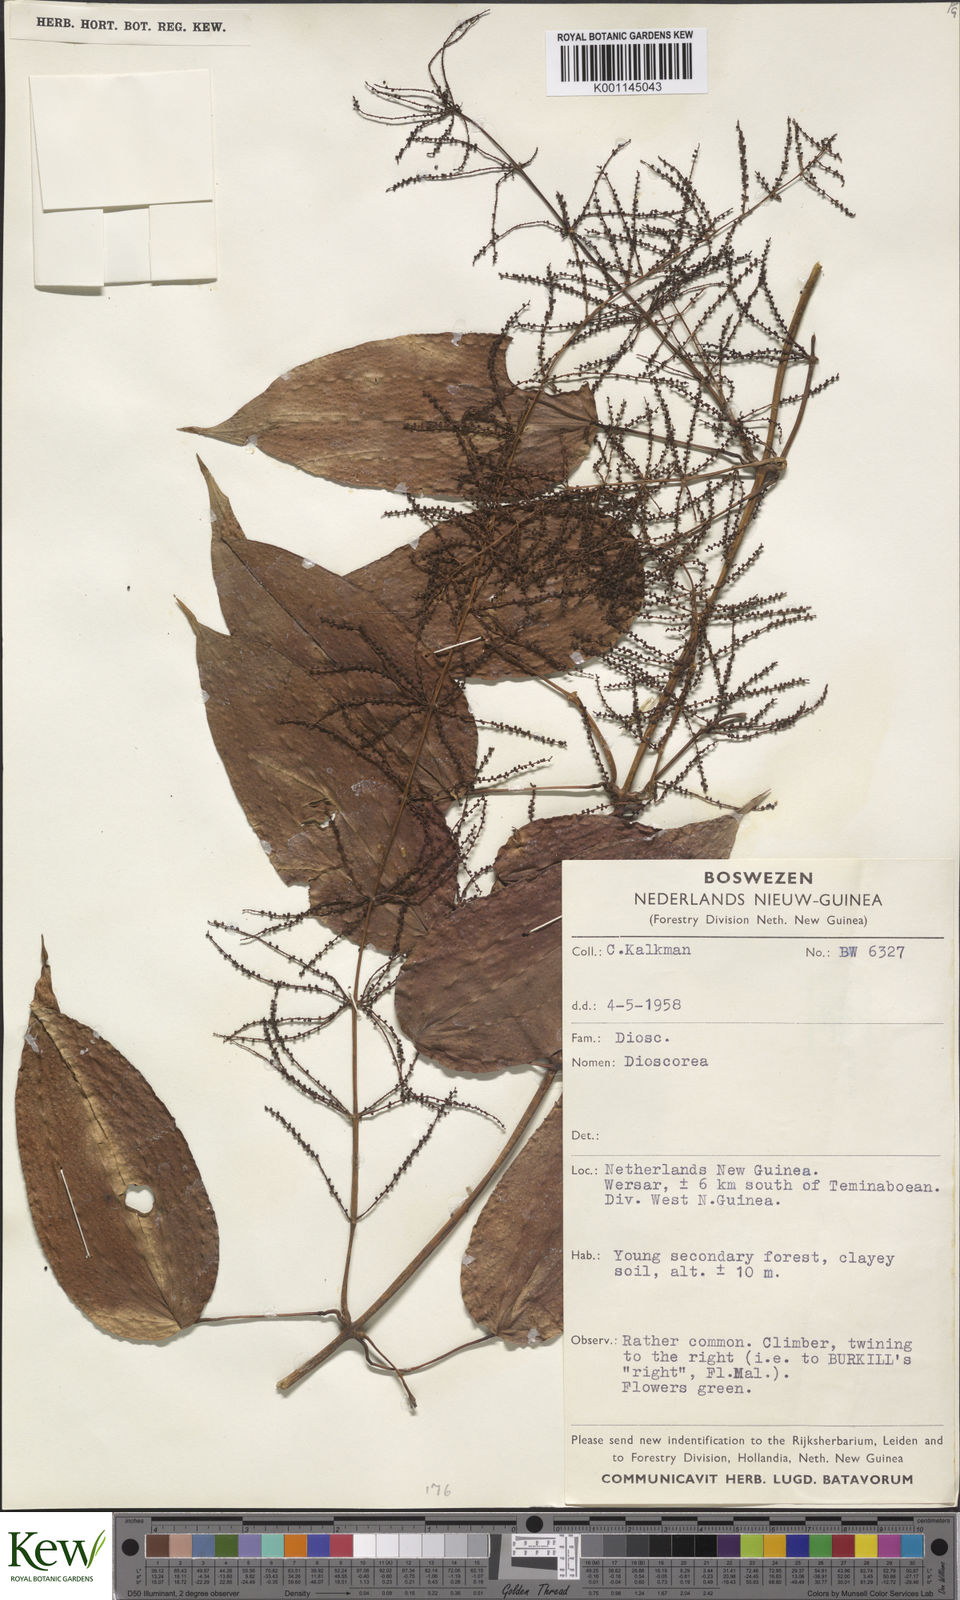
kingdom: Plantae
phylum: Tracheophyta
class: Liliopsida
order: Dioscoreales
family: Dioscoreaceae
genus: Dioscorea
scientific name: Dioscorea
